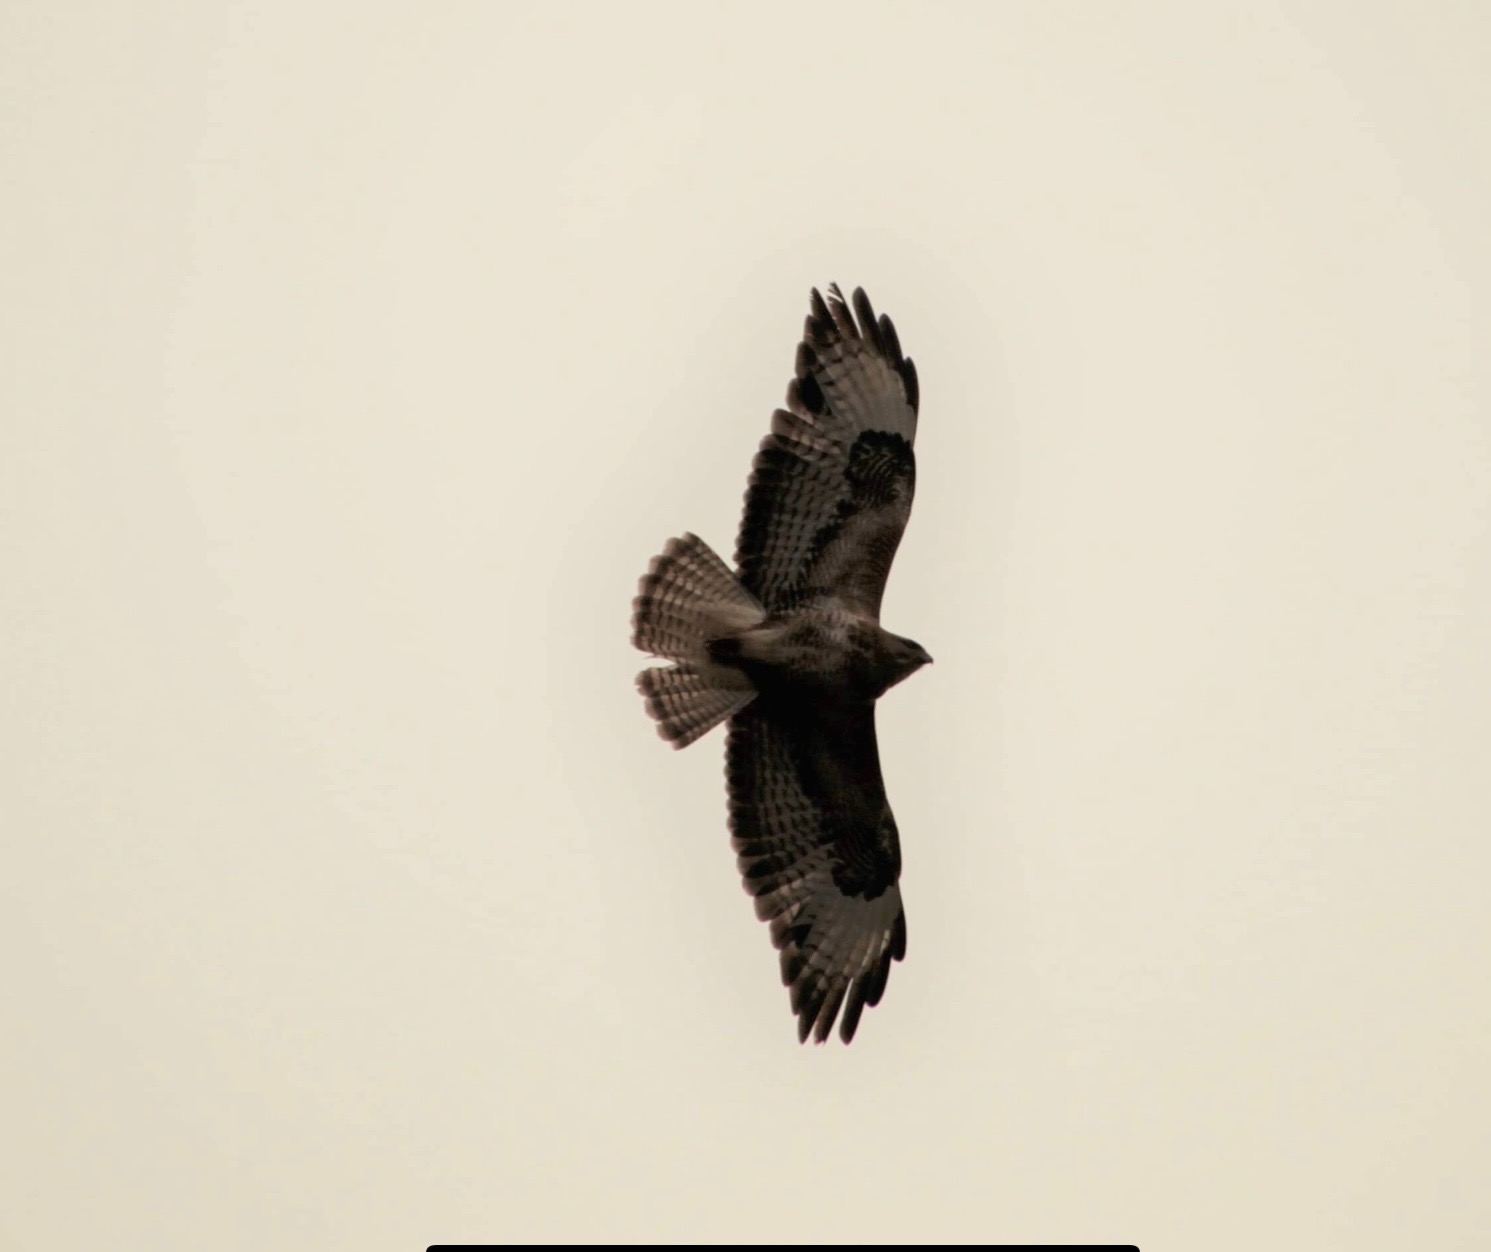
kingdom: Animalia
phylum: Chordata
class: Aves
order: Accipitriformes
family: Accipitridae
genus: Buteo
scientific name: Buteo buteo
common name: Musvåge
